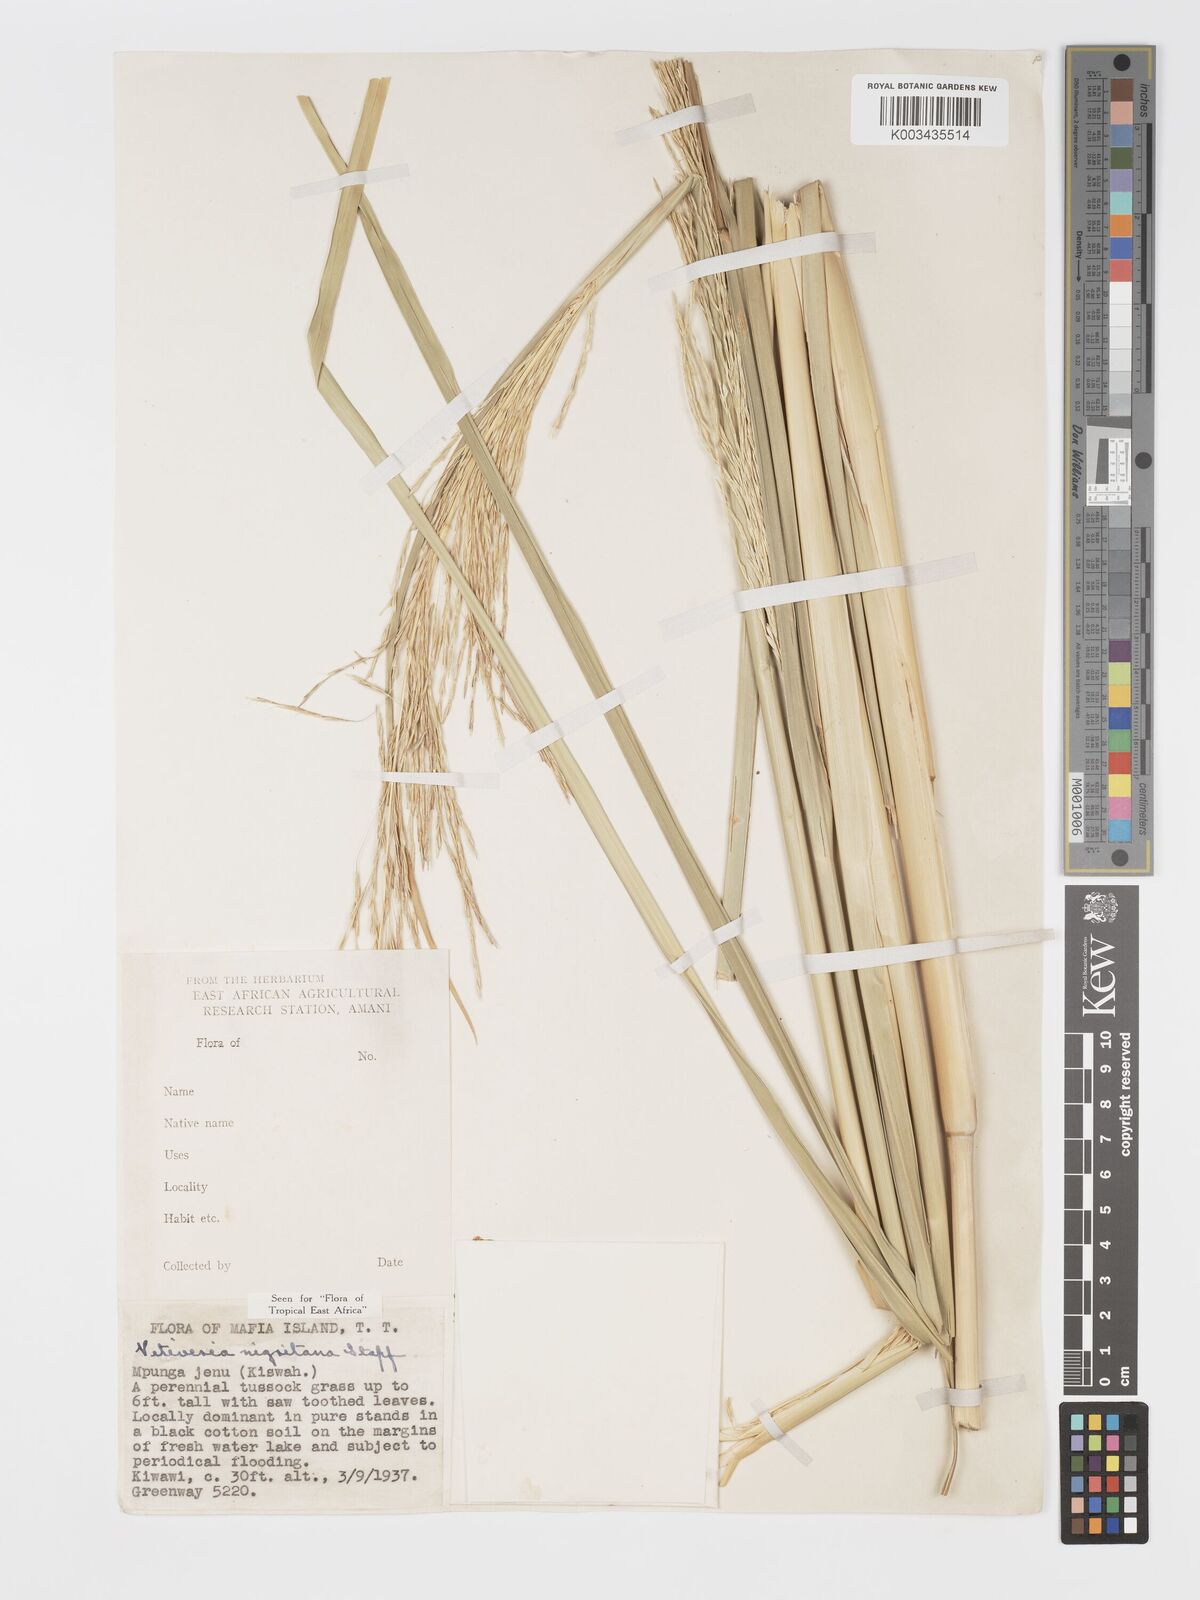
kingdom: Plantae
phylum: Tracheophyta
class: Liliopsida
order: Poales
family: Poaceae
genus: Chrysopogon
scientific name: Chrysopogon nigritanus
